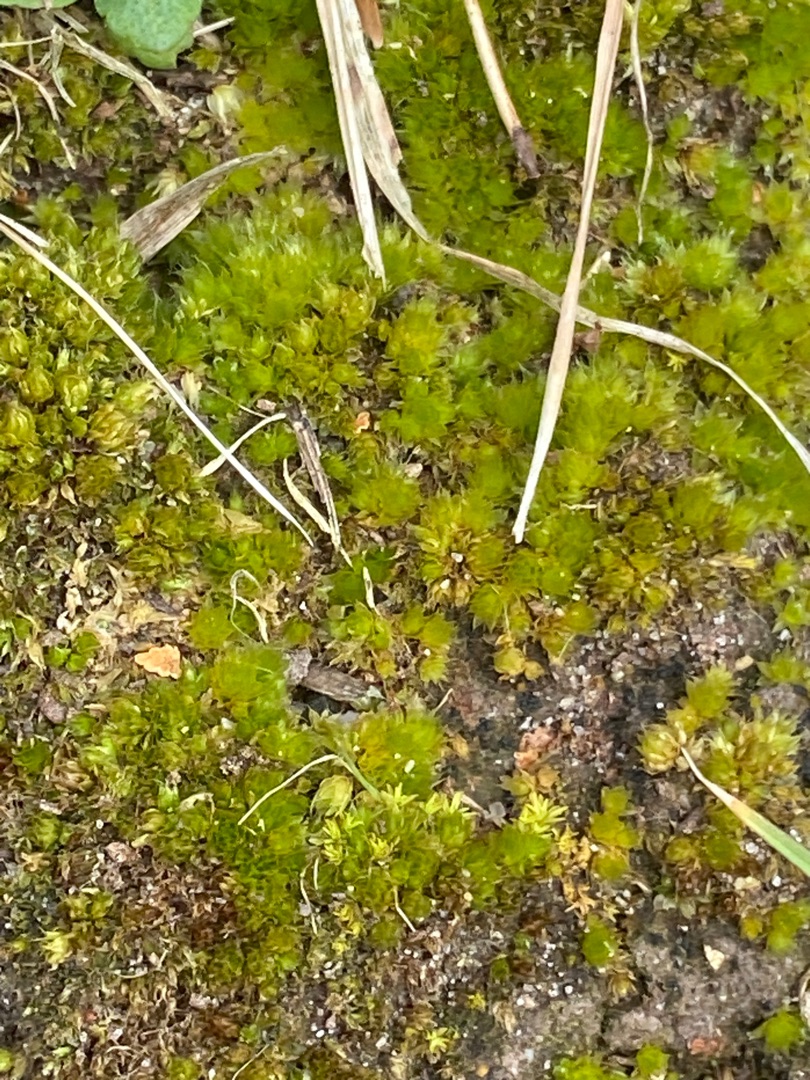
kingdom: Plantae
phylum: Bryophyta
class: Bryopsida
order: Bryales
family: Bryaceae
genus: Bryum
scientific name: Bryum
